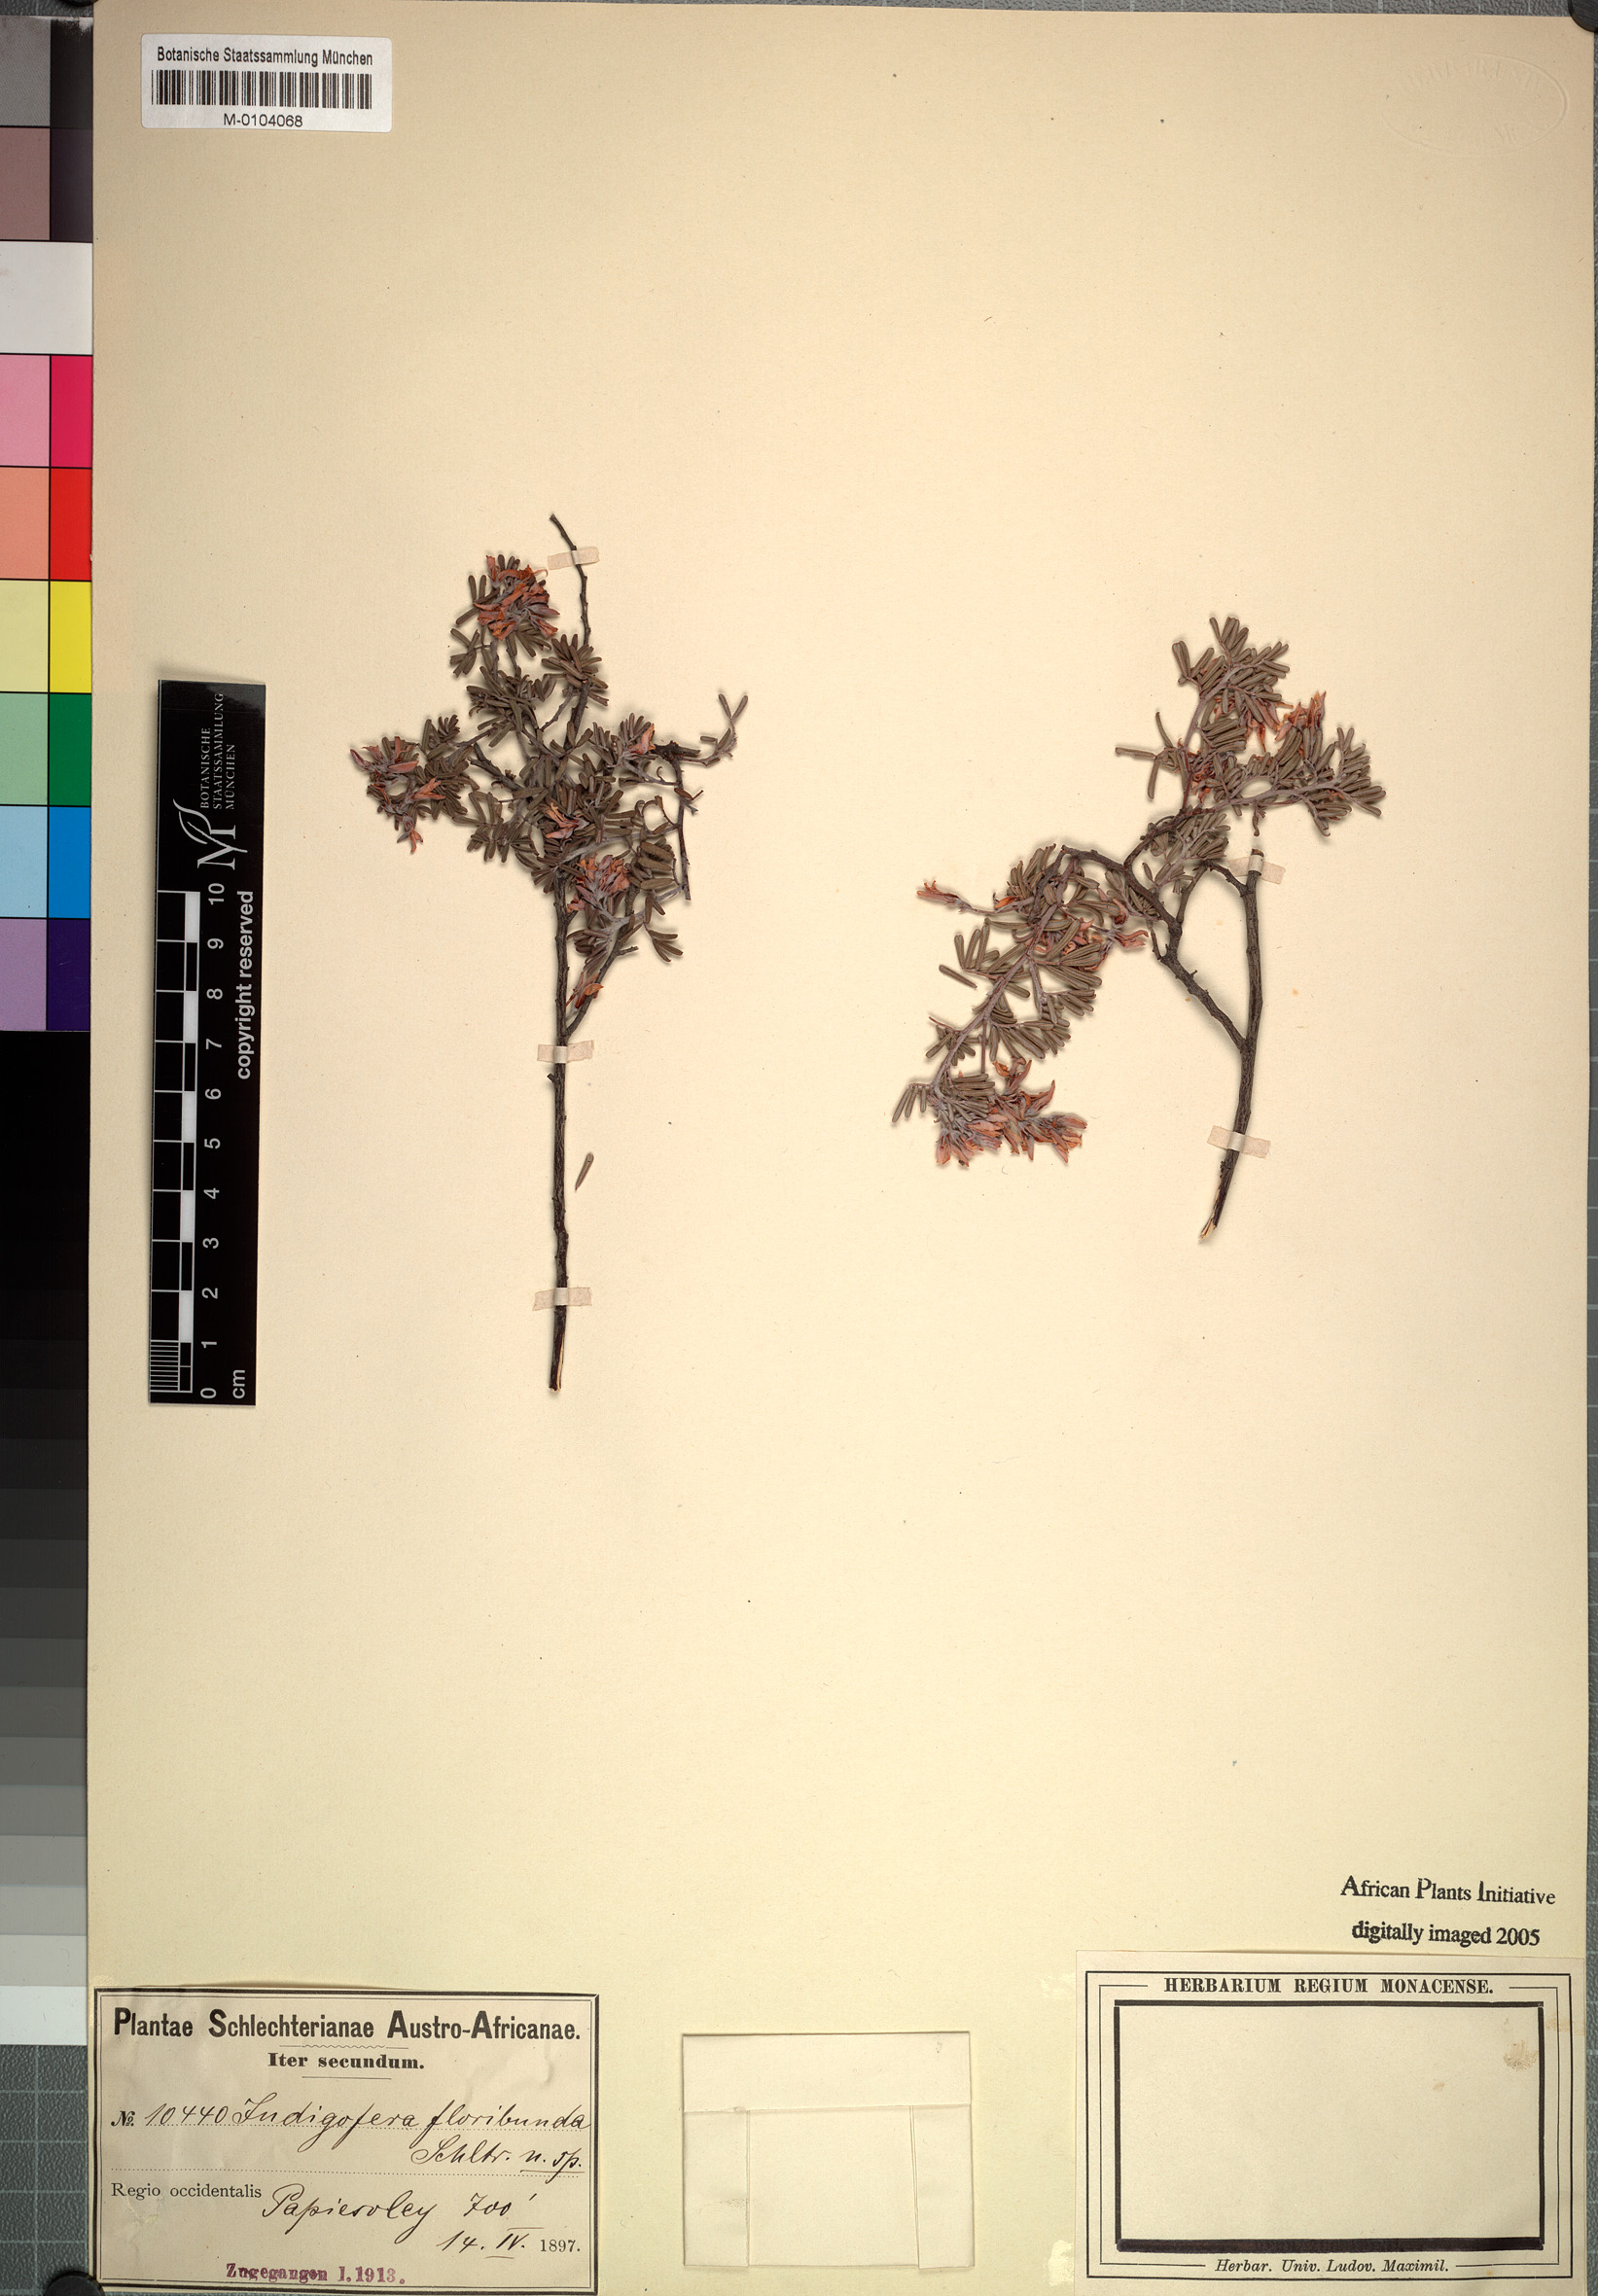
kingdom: Plantae
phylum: Tracheophyta
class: Magnoliopsida
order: Fabales
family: Fabaceae
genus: Indigofera
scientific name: Indigofera floribunda
